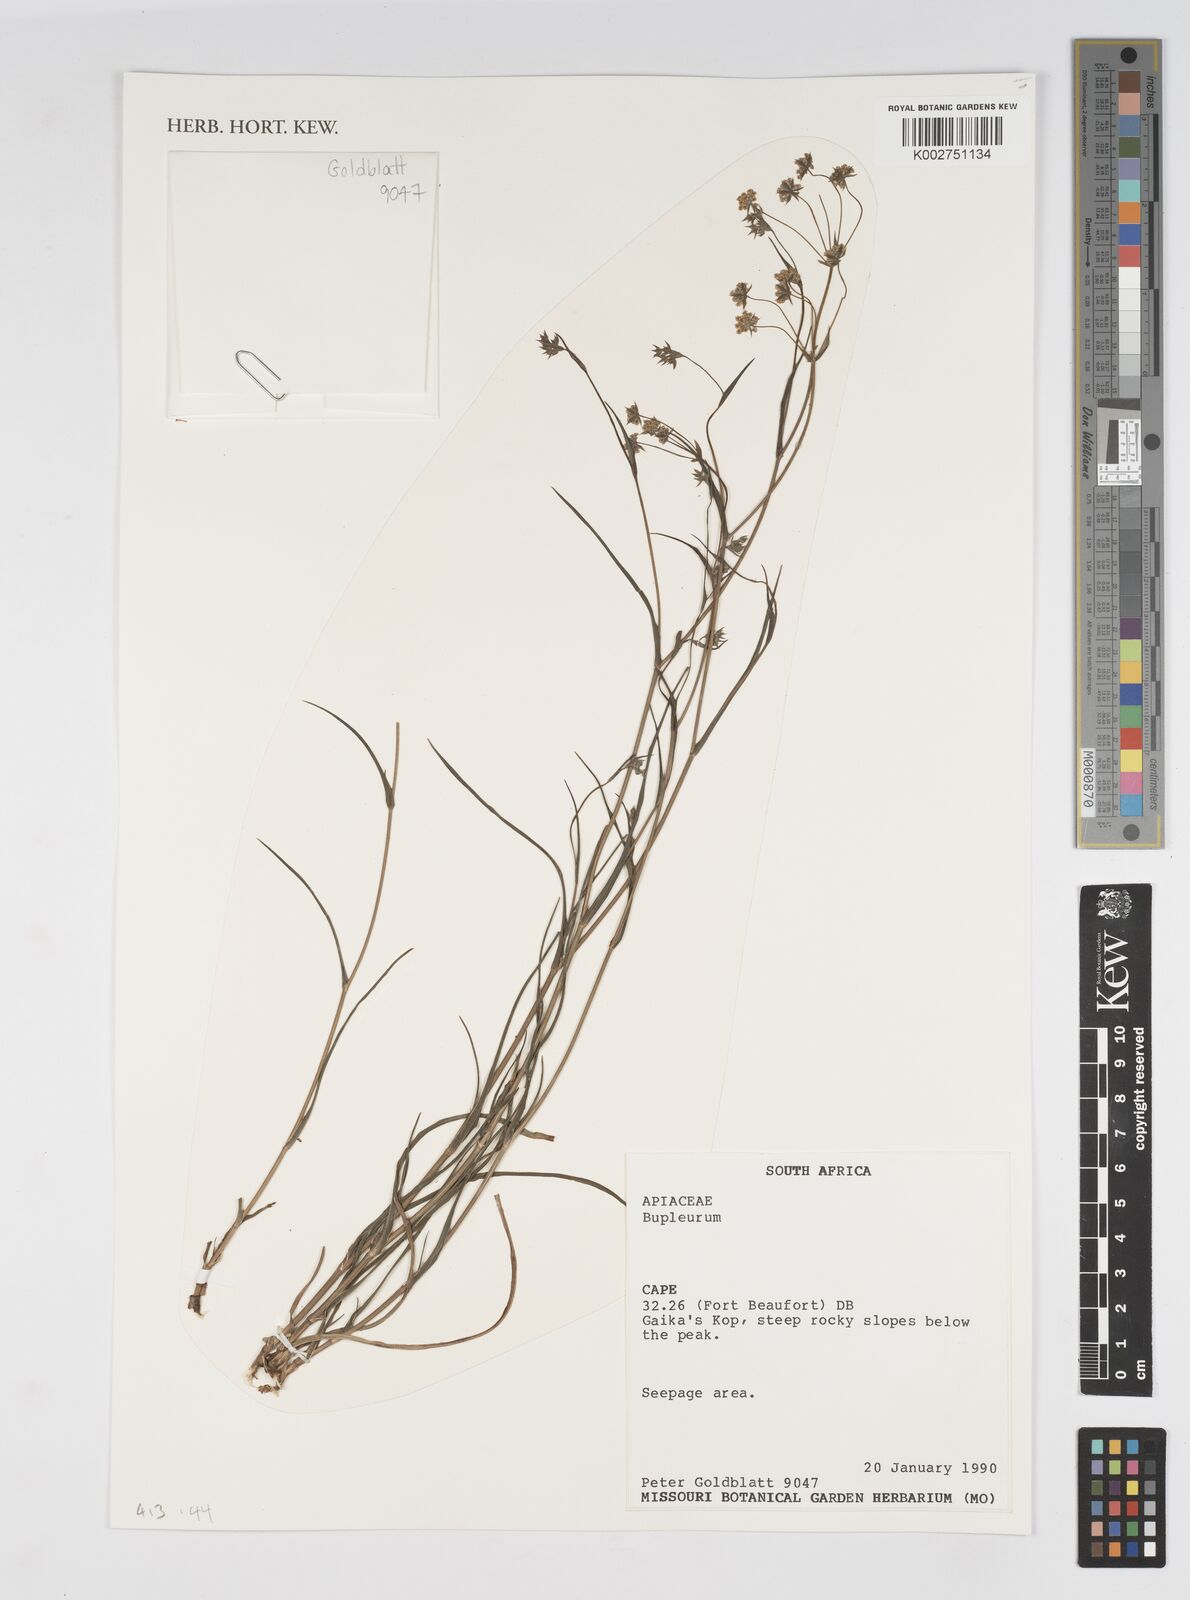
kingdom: Plantae
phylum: Tracheophyta
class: Magnoliopsida
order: Apiales
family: Apiaceae
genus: Bupleurum
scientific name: Bupleurum mundii
